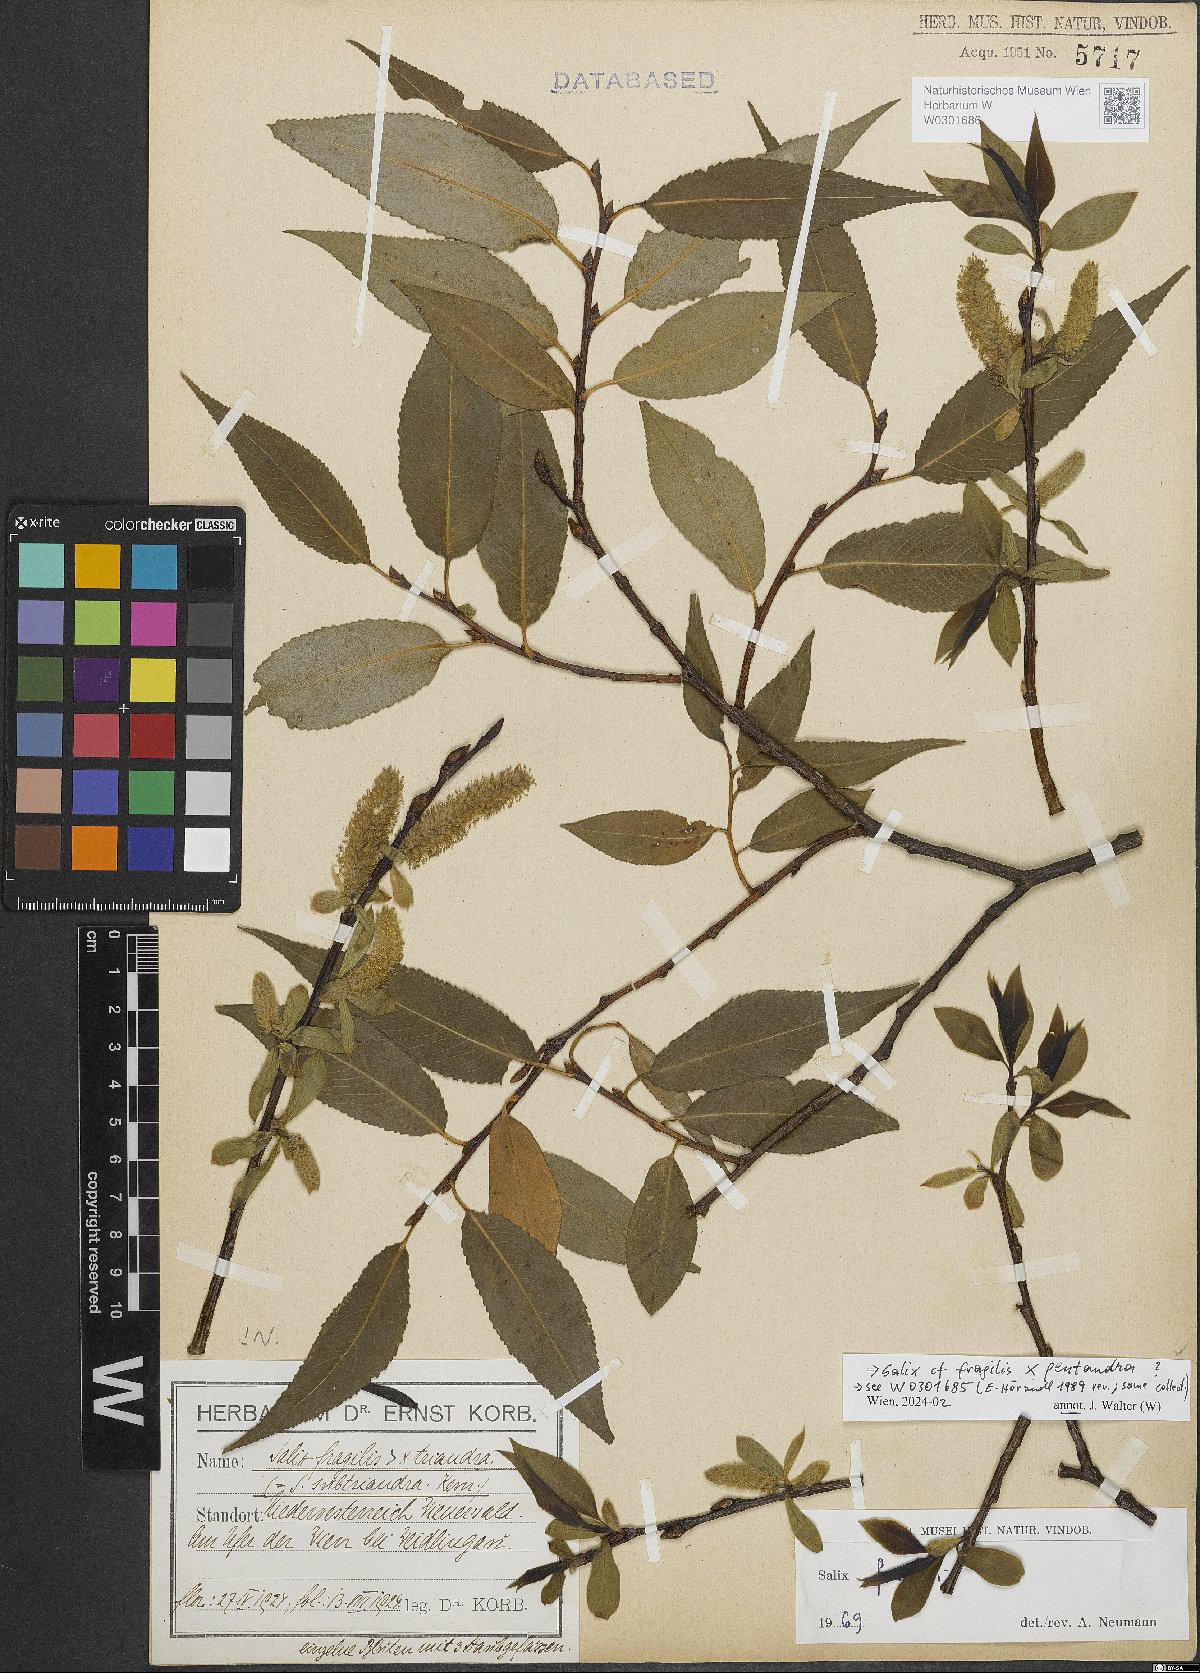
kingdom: Plantae
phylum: Tracheophyta
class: Magnoliopsida
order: Malpighiales
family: Salicaceae
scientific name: Salicaceae
